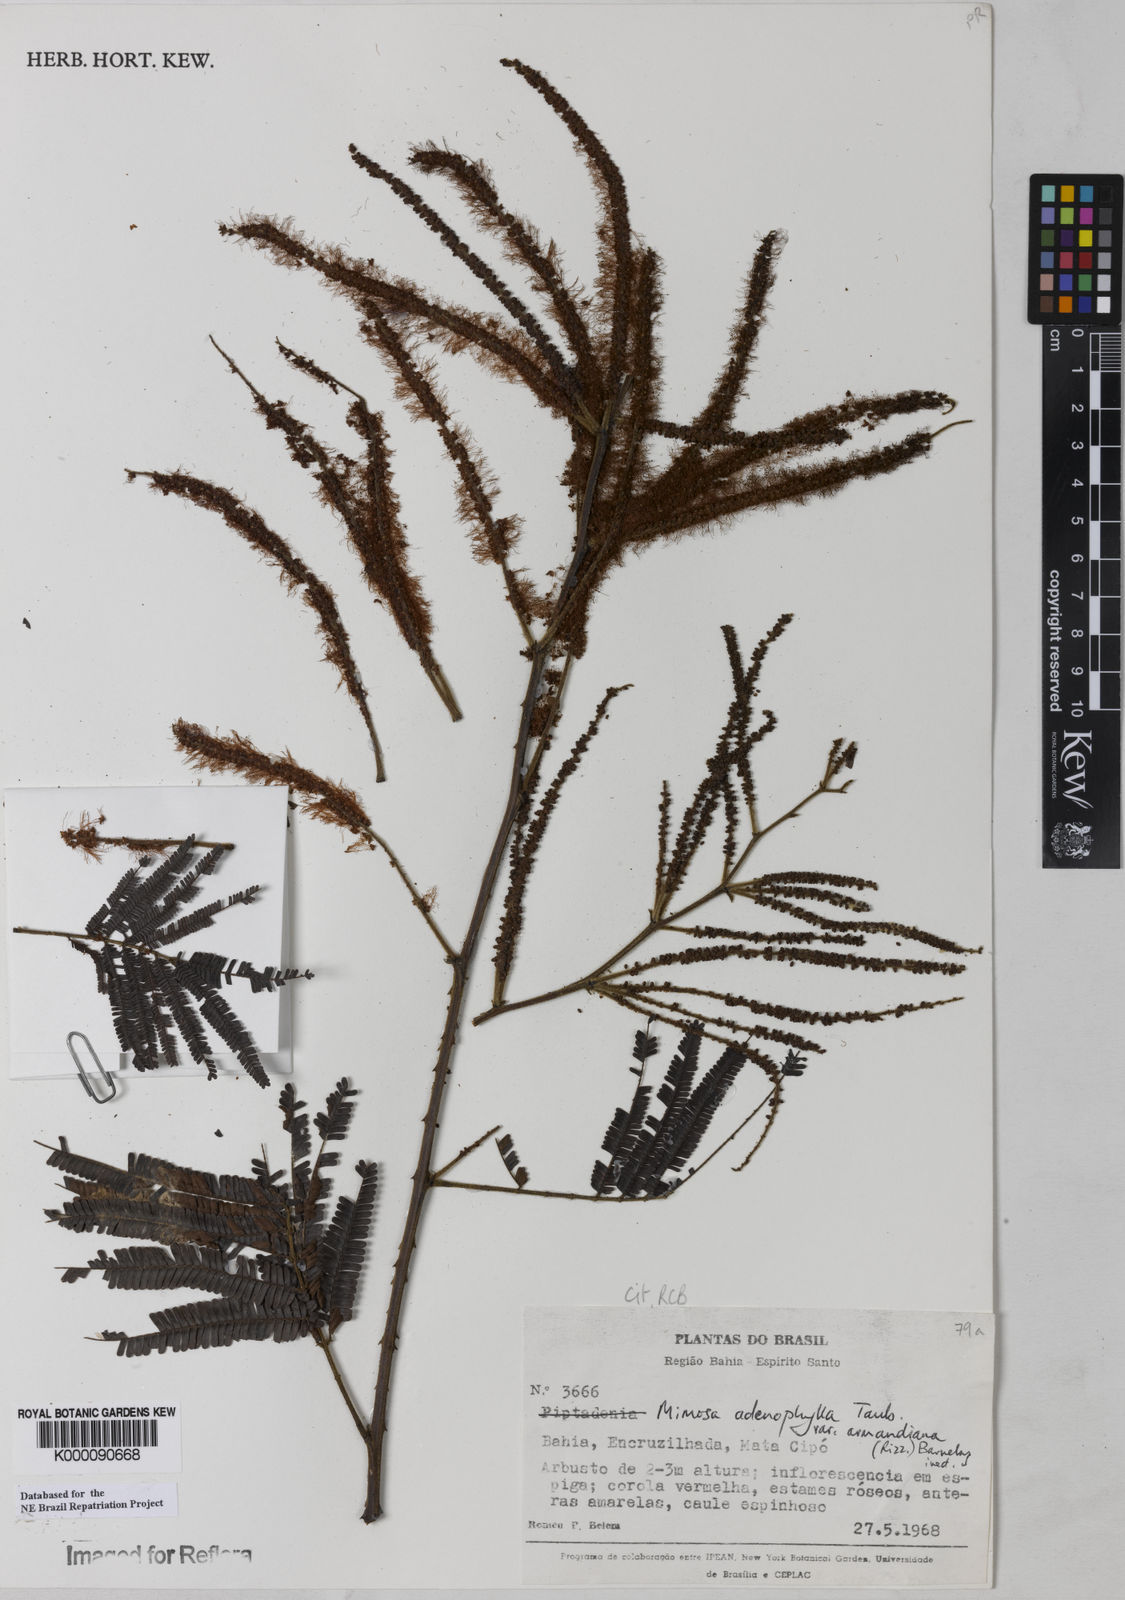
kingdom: Plantae
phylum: Tracheophyta
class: Magnoliopsida
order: Fabales
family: Fabaceae
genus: Mimosa
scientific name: Mimosa pteridifolia
